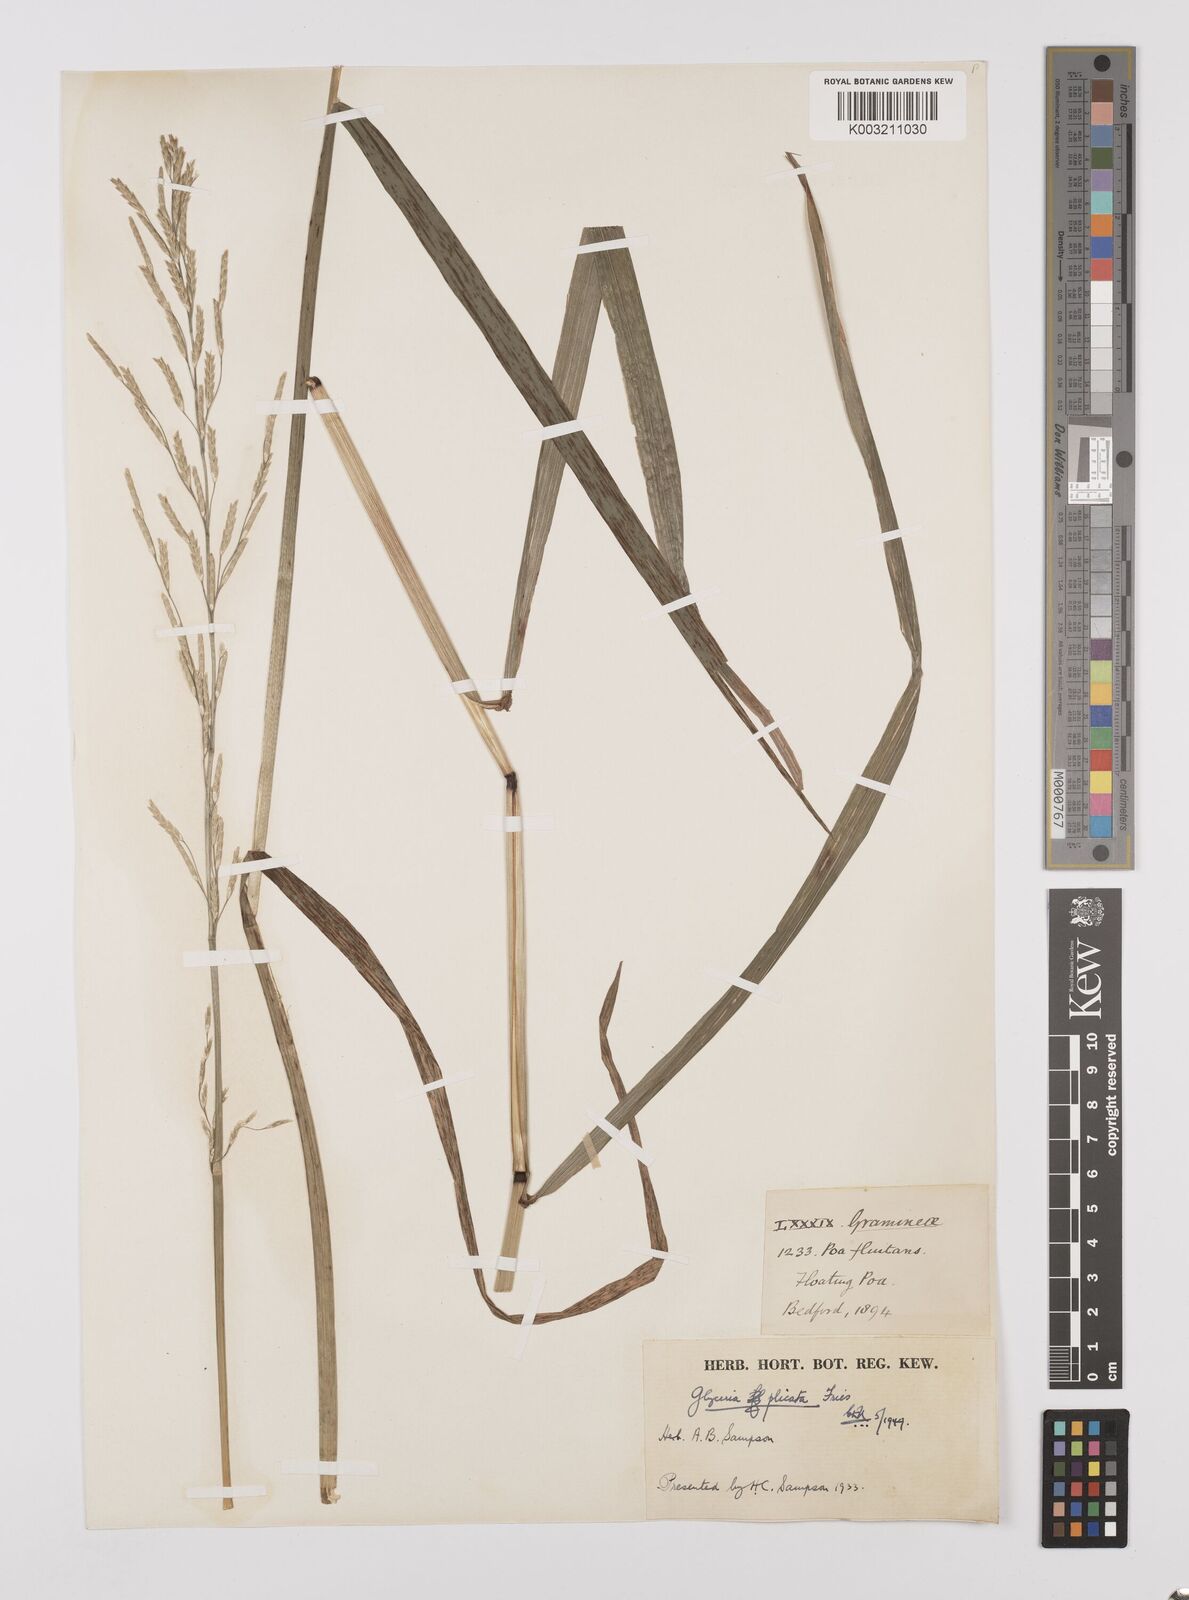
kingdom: Plantae
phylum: Tracheophyta
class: Liliopsida
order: Poales
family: Poaceae
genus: Glyceria
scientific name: Glyceria notata
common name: Plicate sweet-grass
